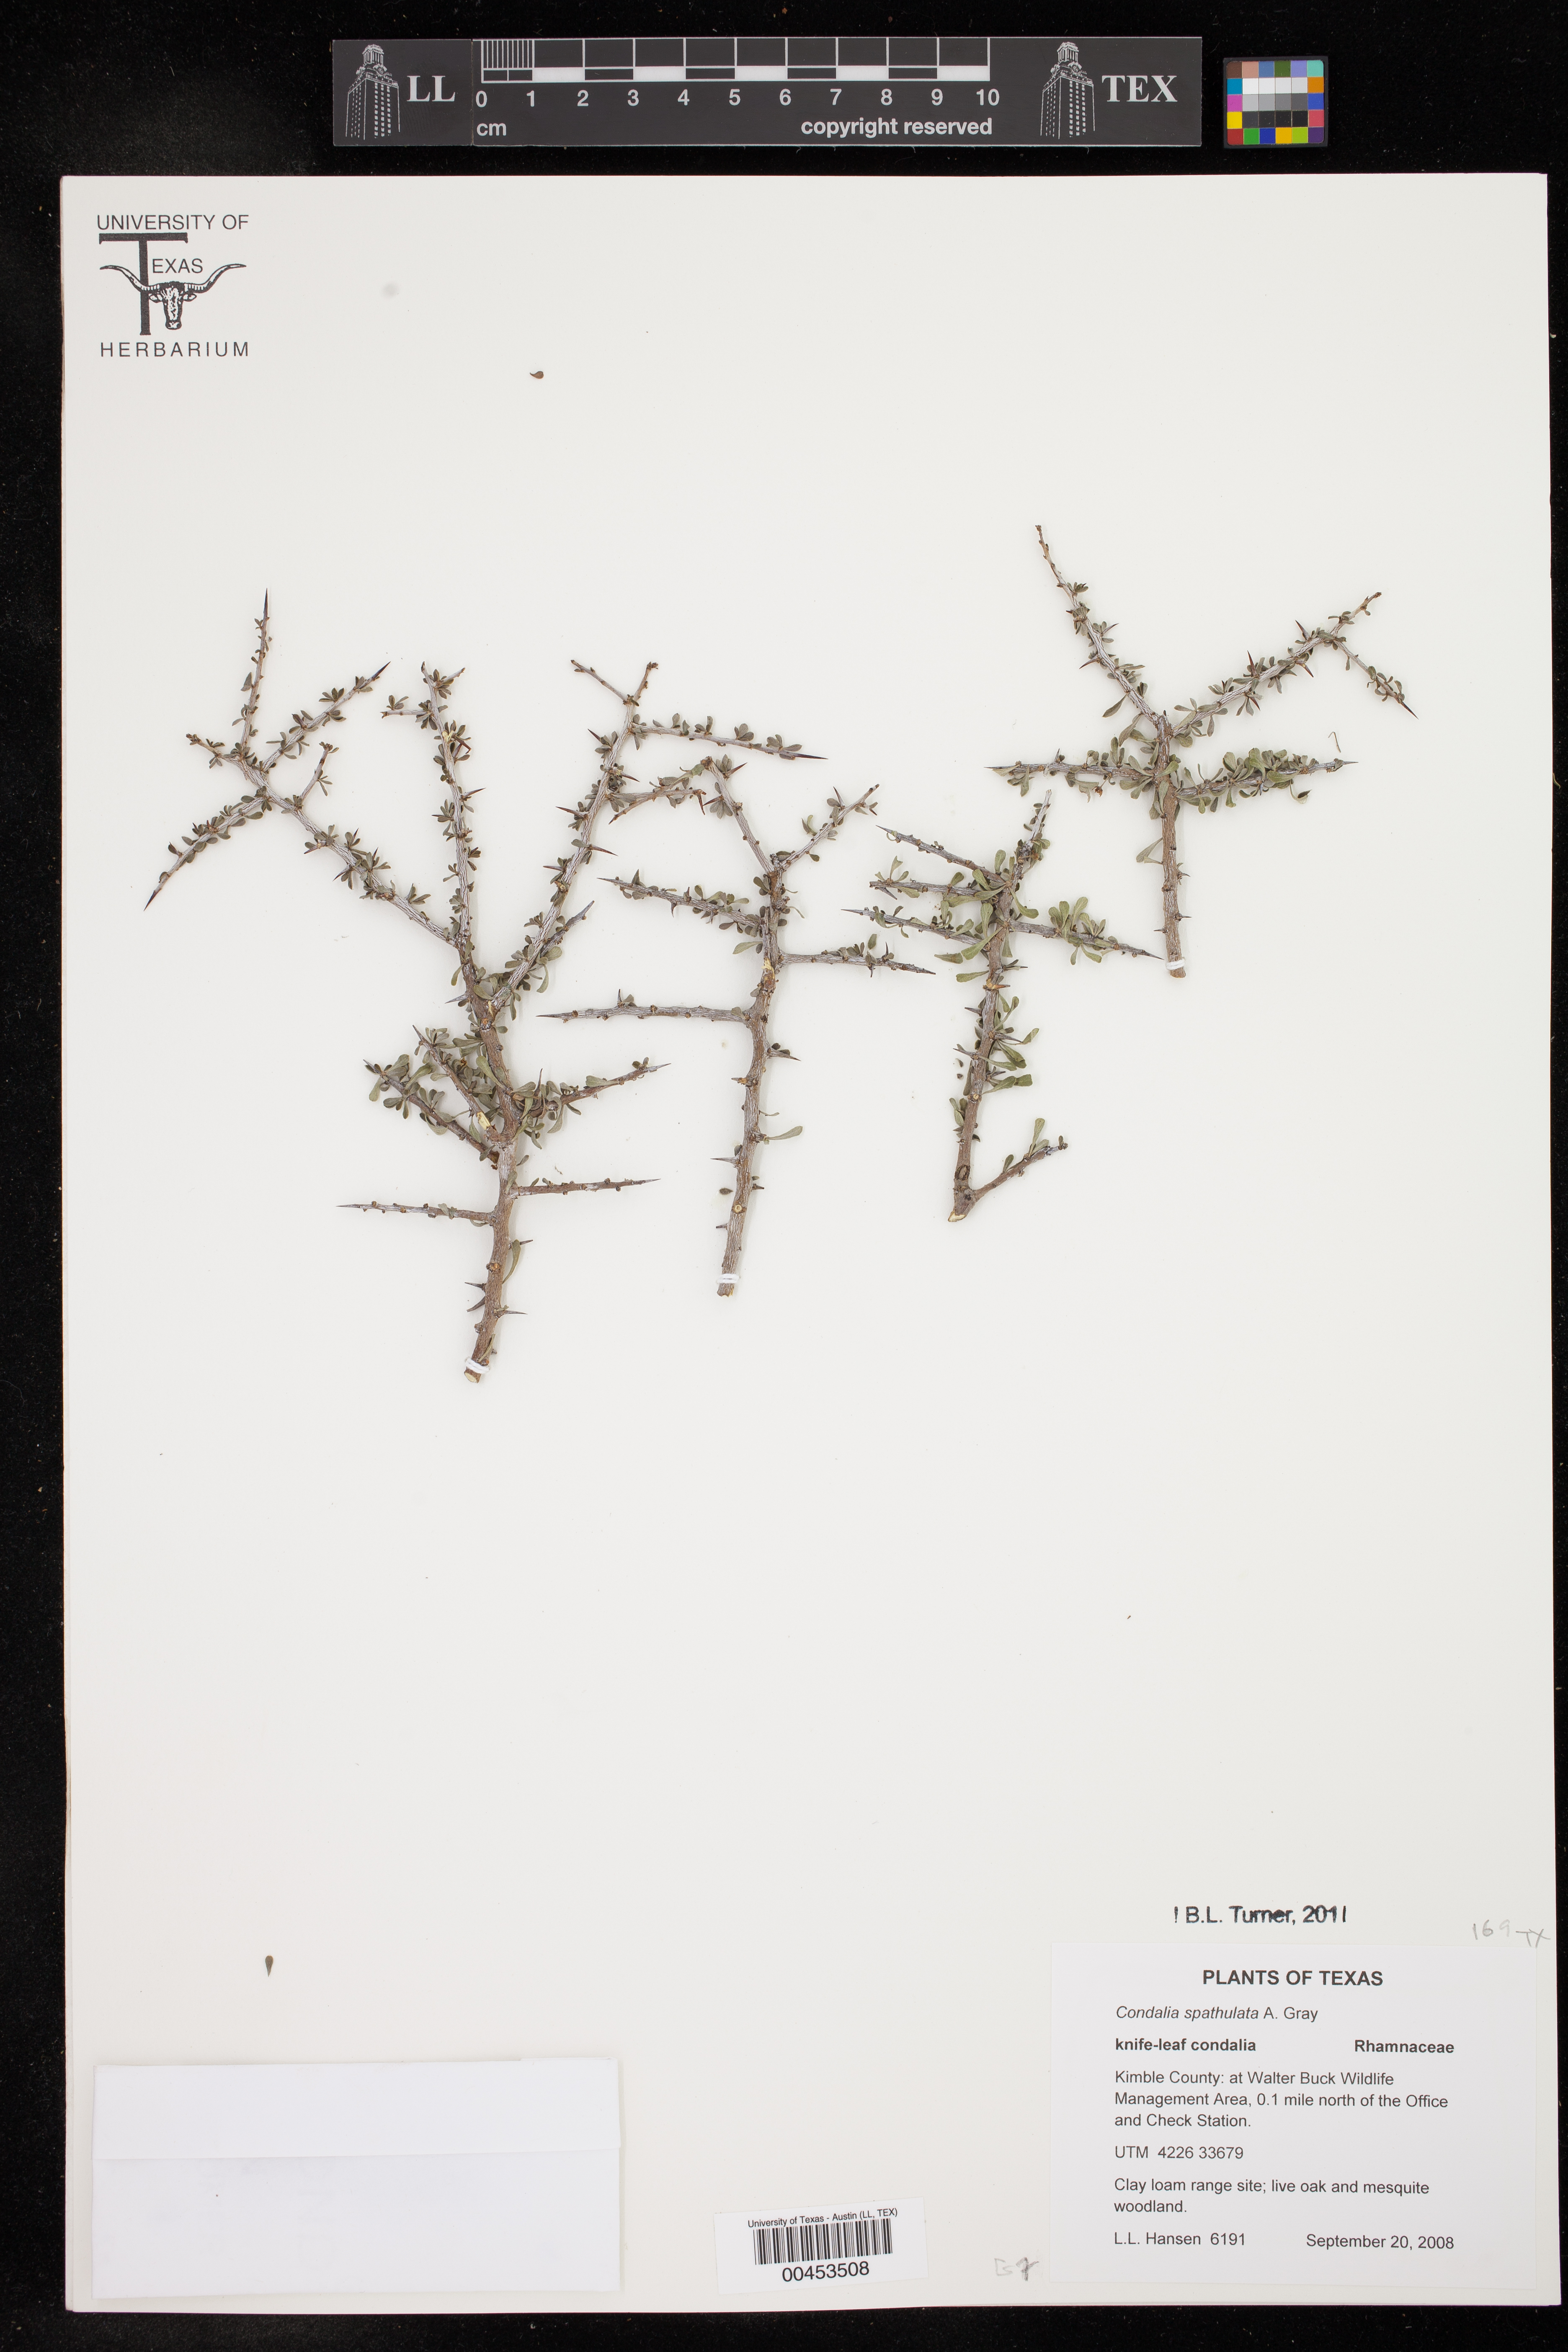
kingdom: Plantae
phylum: Tracheophyta
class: Magnoliopsida
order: Rosales
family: Rhamnaceae
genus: Condalia
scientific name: Condalia spathulata
